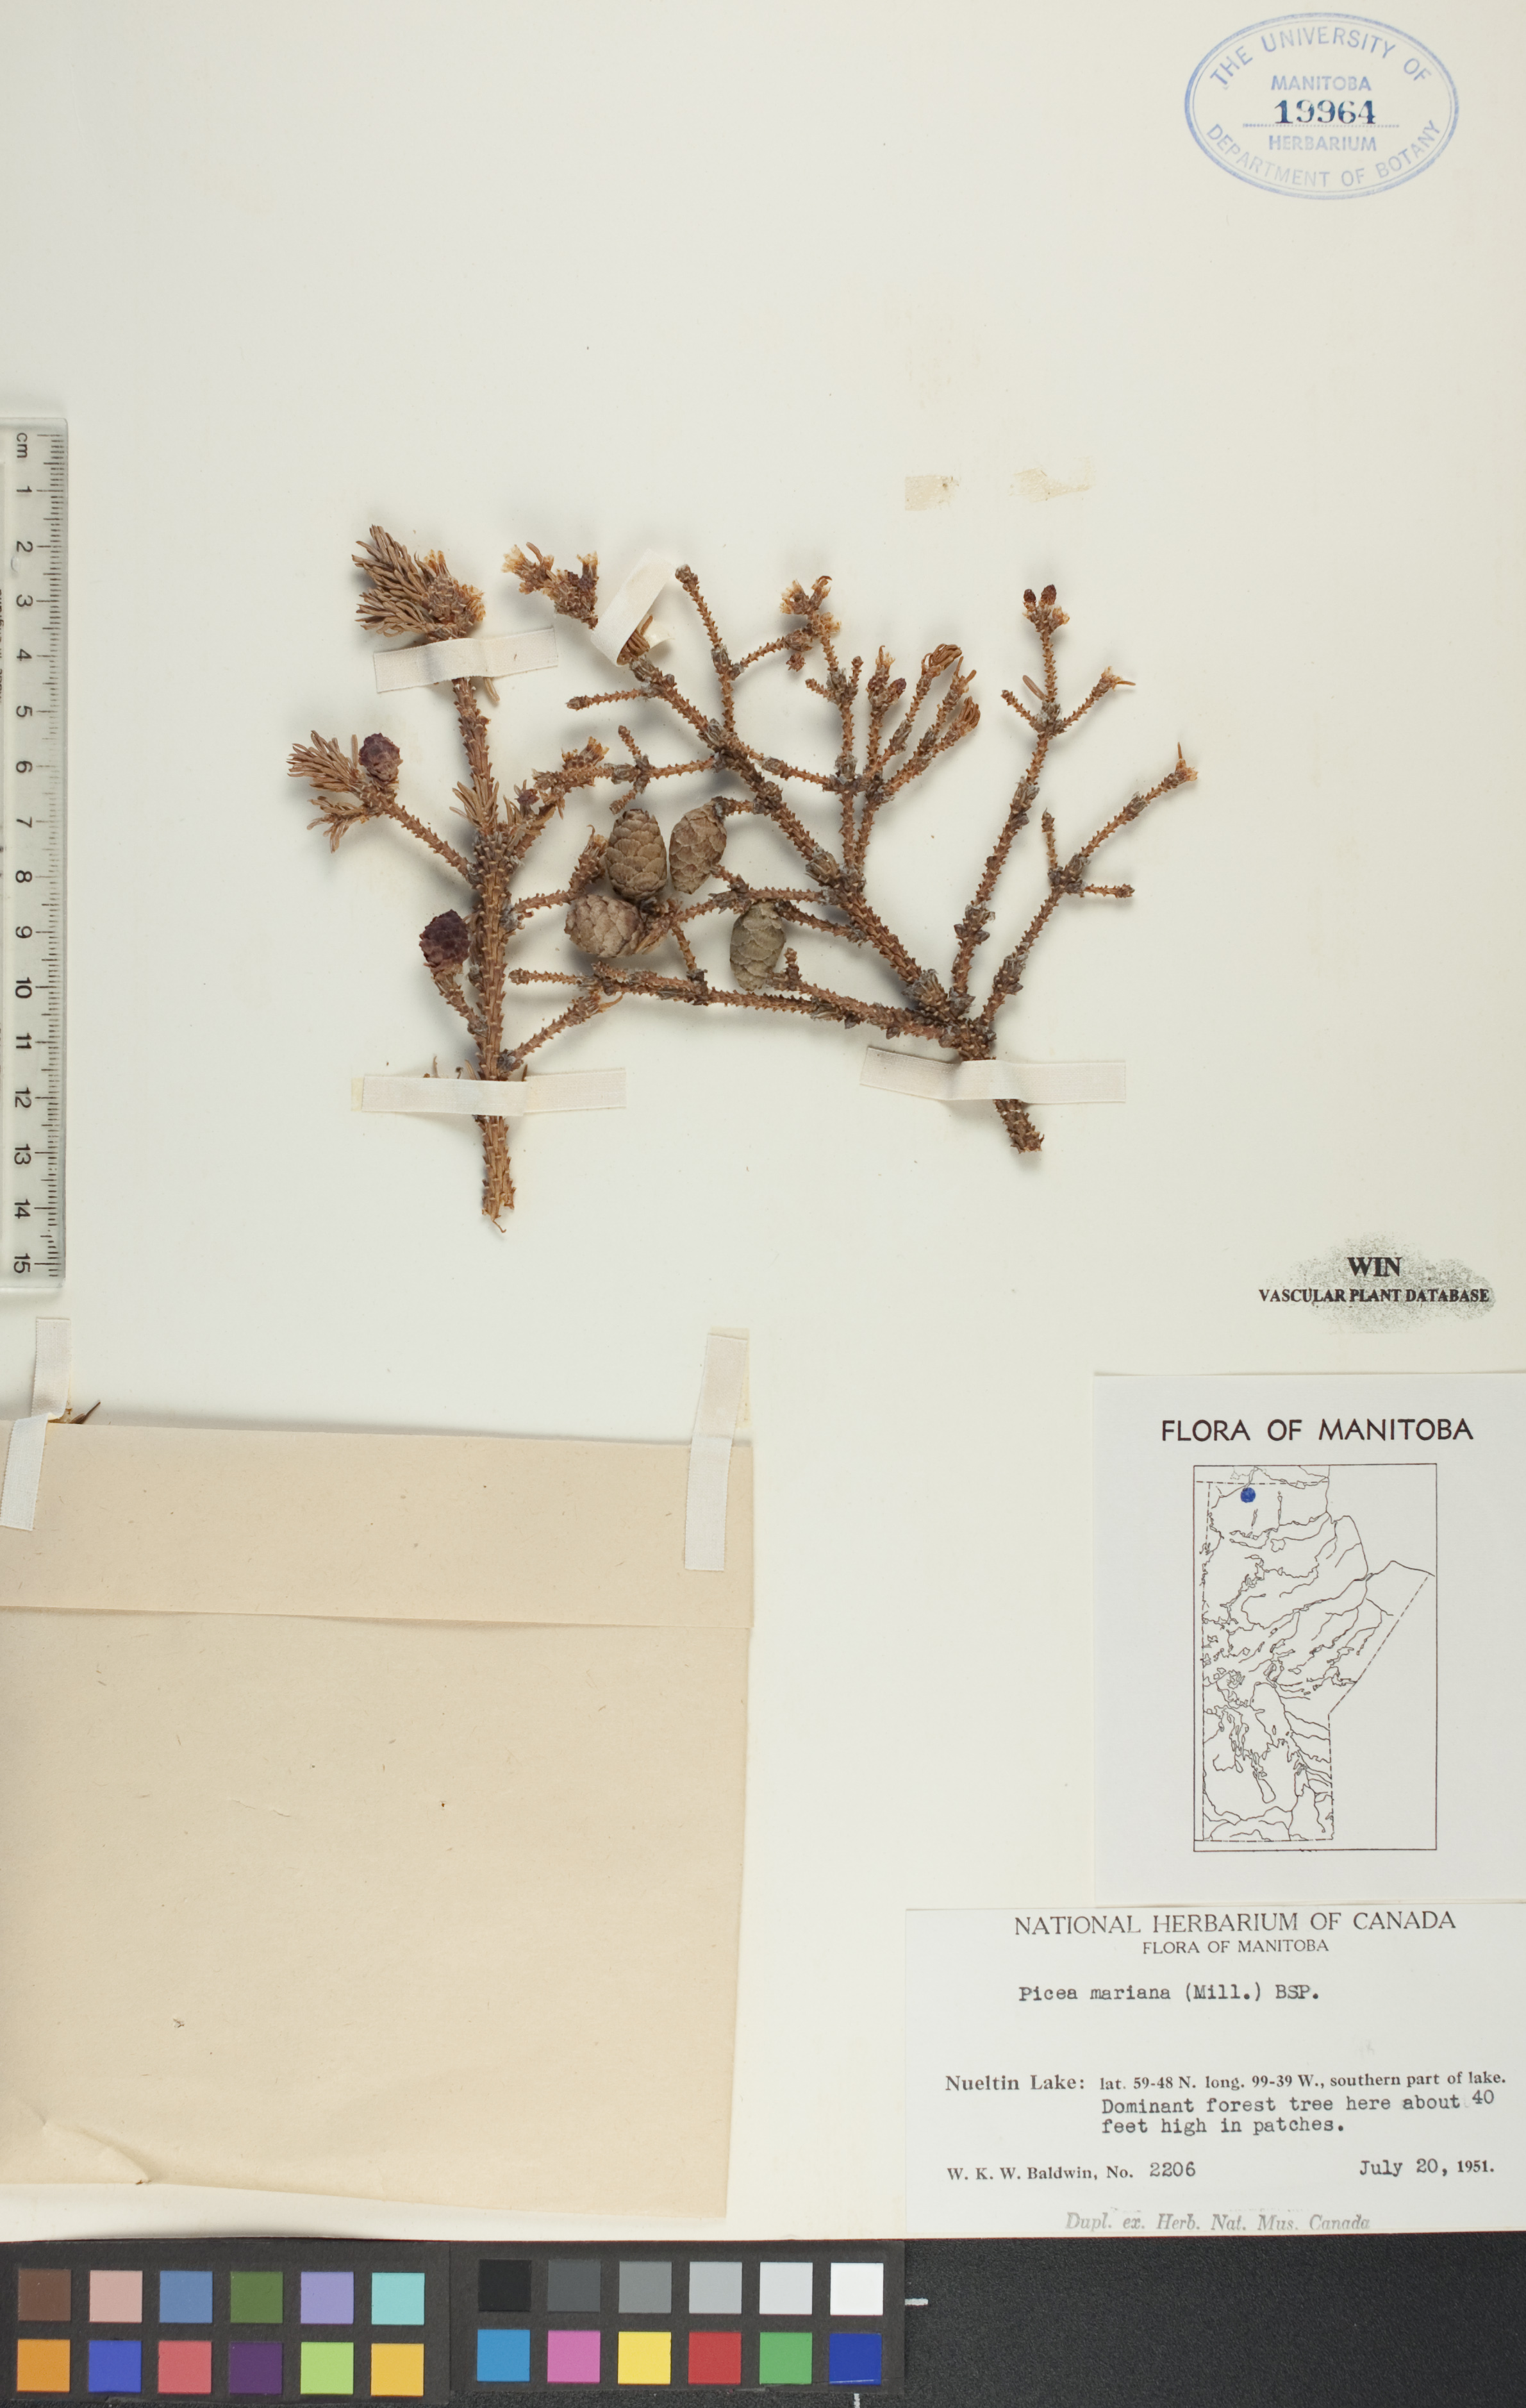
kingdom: Plantae
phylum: Tracheophyta
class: Pinopsida
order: Pinales
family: Pinaceae
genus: Picea
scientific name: Picea mariana
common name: Black spruce
